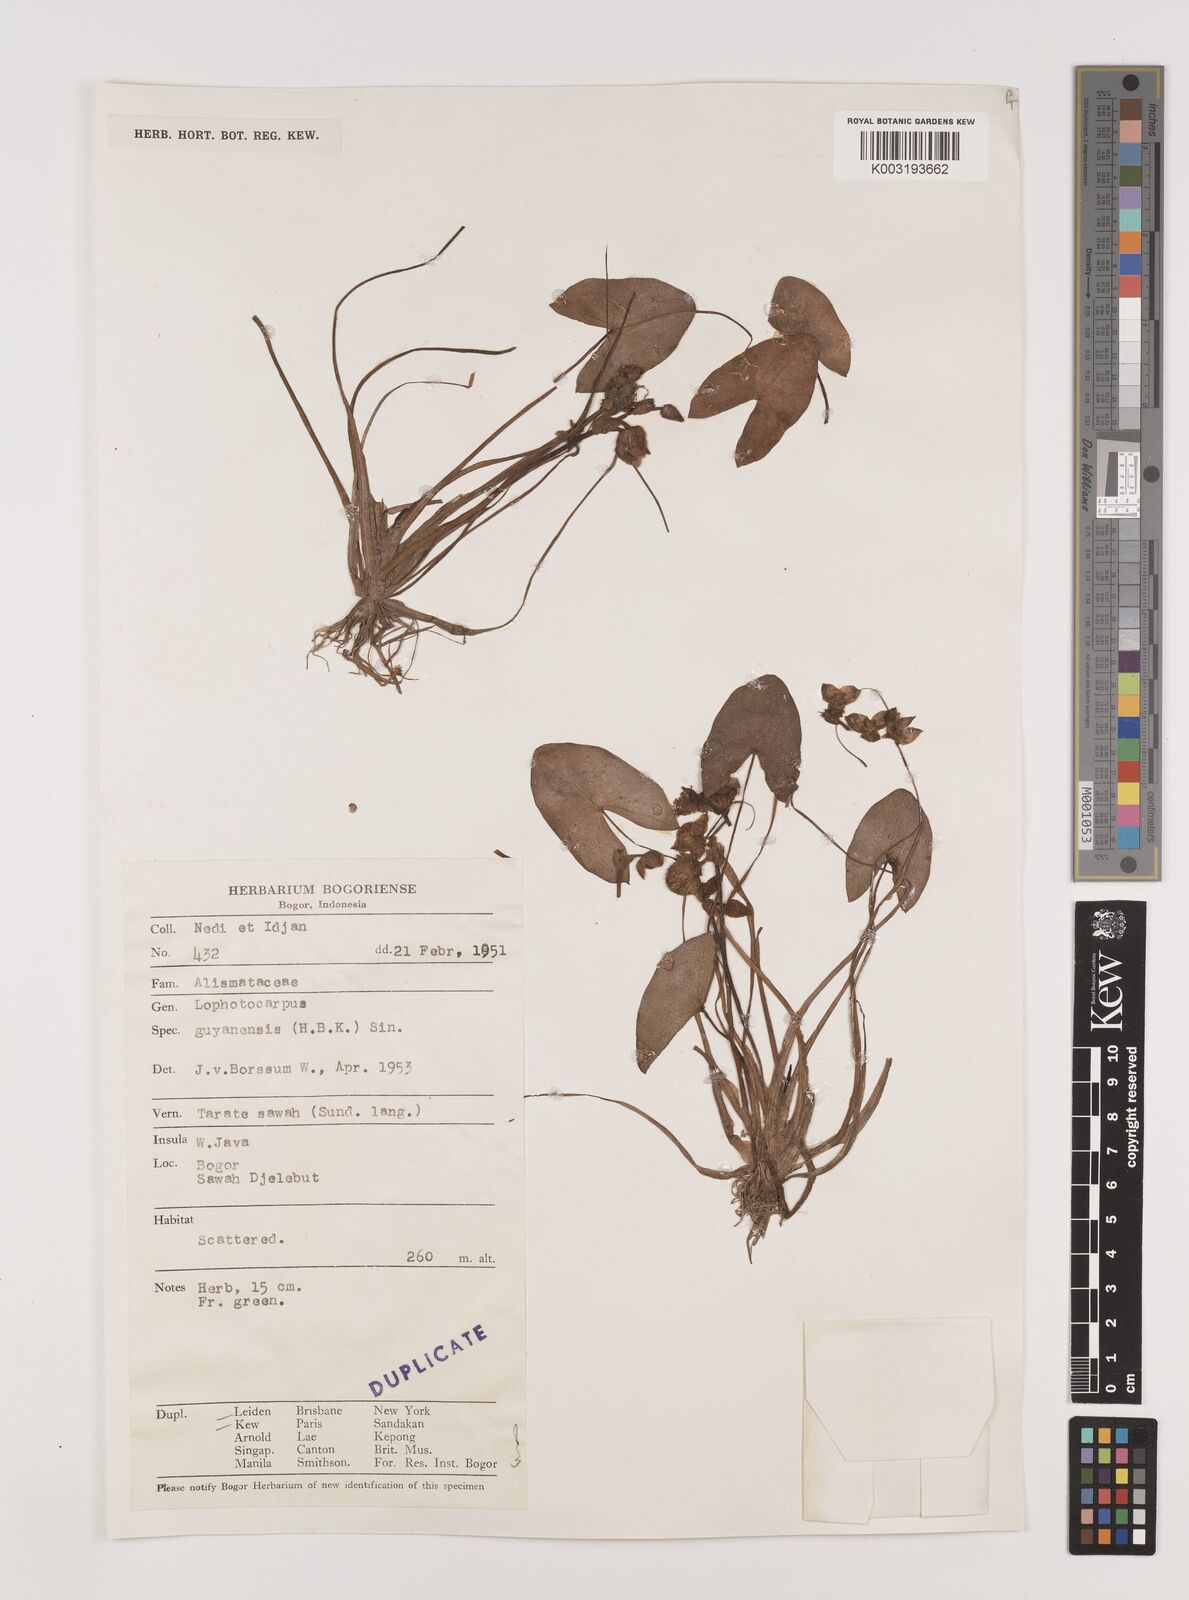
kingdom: Plantae
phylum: Tracheophyta
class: Liliopsida
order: Alismatales
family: Alismataceae
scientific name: Alismataceae
